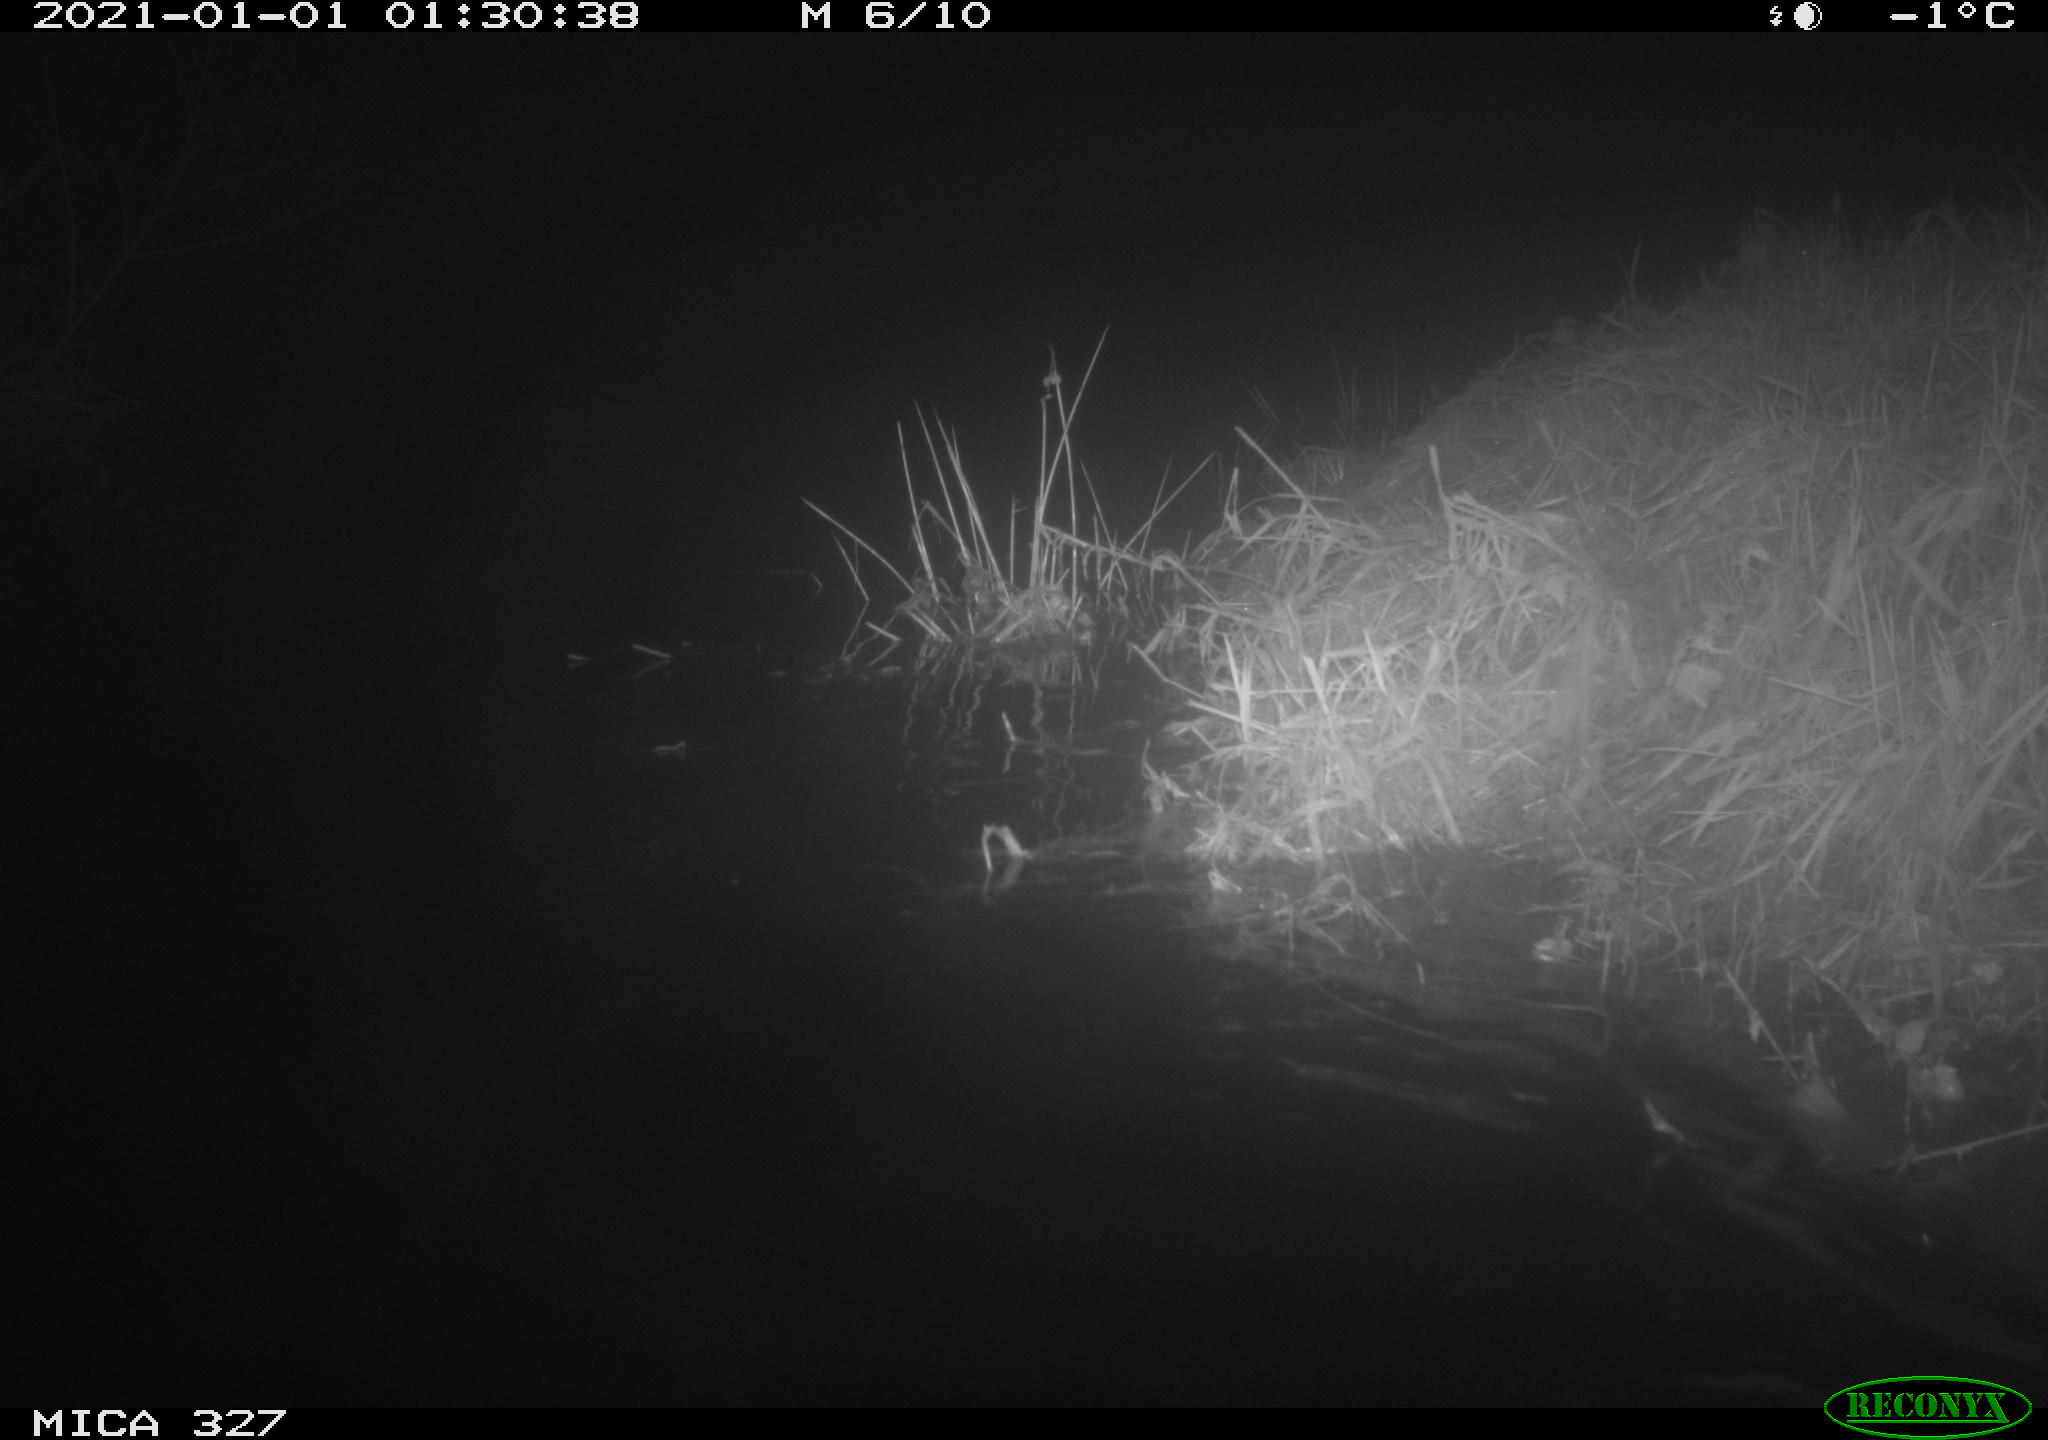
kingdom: Animalia
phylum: Chordata
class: Mammalia
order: Rodentia
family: Cricetidae
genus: Ondatra
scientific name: Ondatra zibethicus
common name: Muskrat
